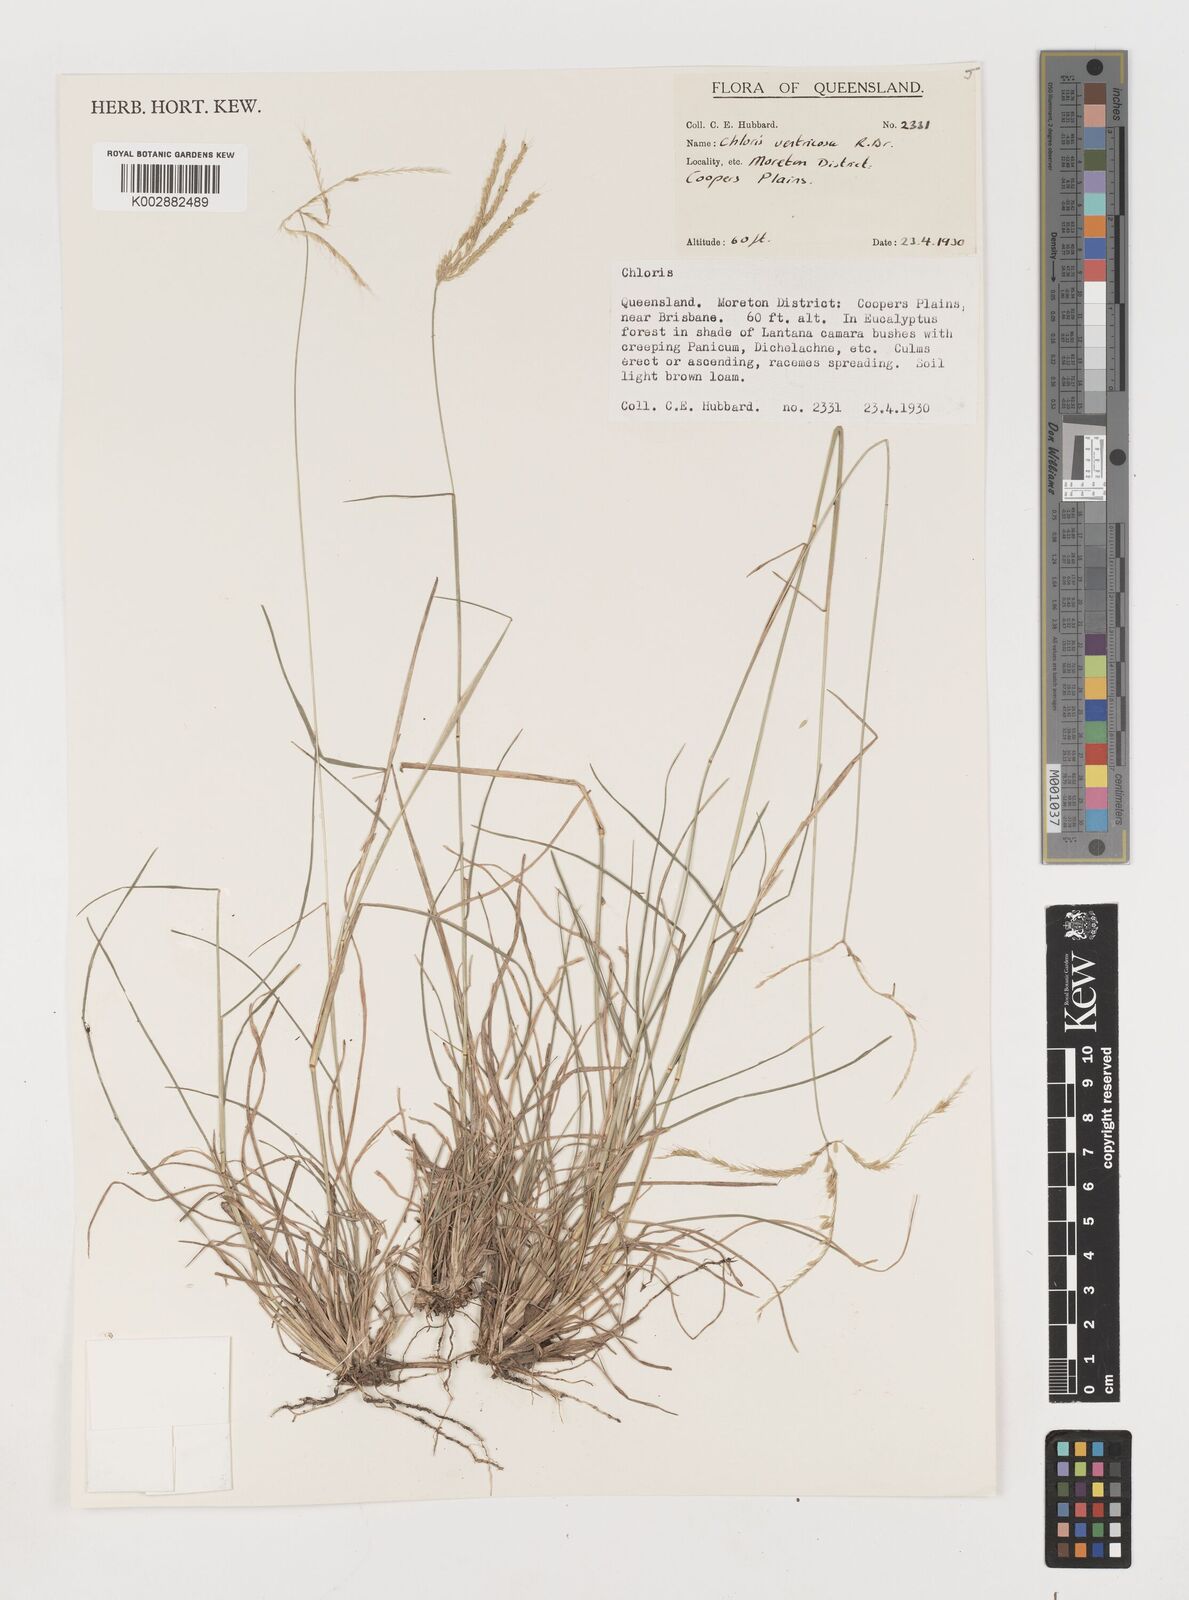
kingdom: Plantae
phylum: Tracheophyta
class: Liliopsida
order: Poales
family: Poaceae
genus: Chloris
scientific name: Chloris ventricosa
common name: Australian windmill grass
